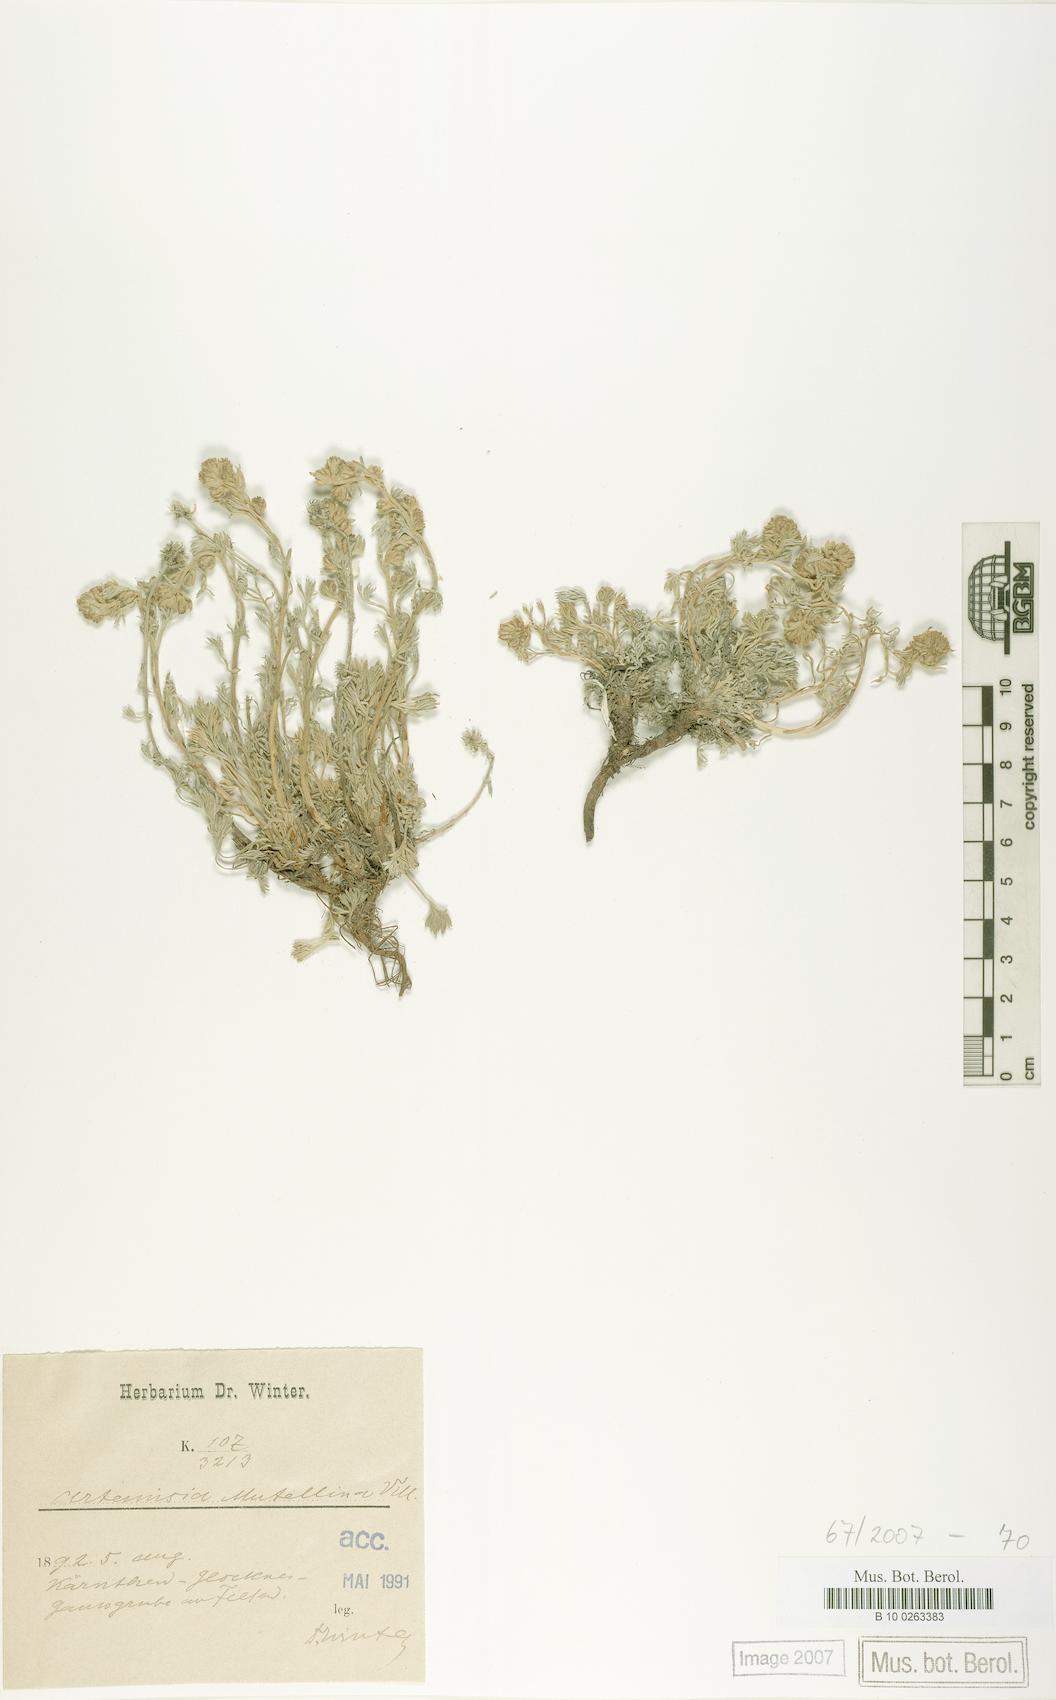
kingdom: Plantae
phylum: Tracheophyta
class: Magnoliopsida
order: Asterales
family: Asteraceae
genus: Artemisia
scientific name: Artemisia mutellina
